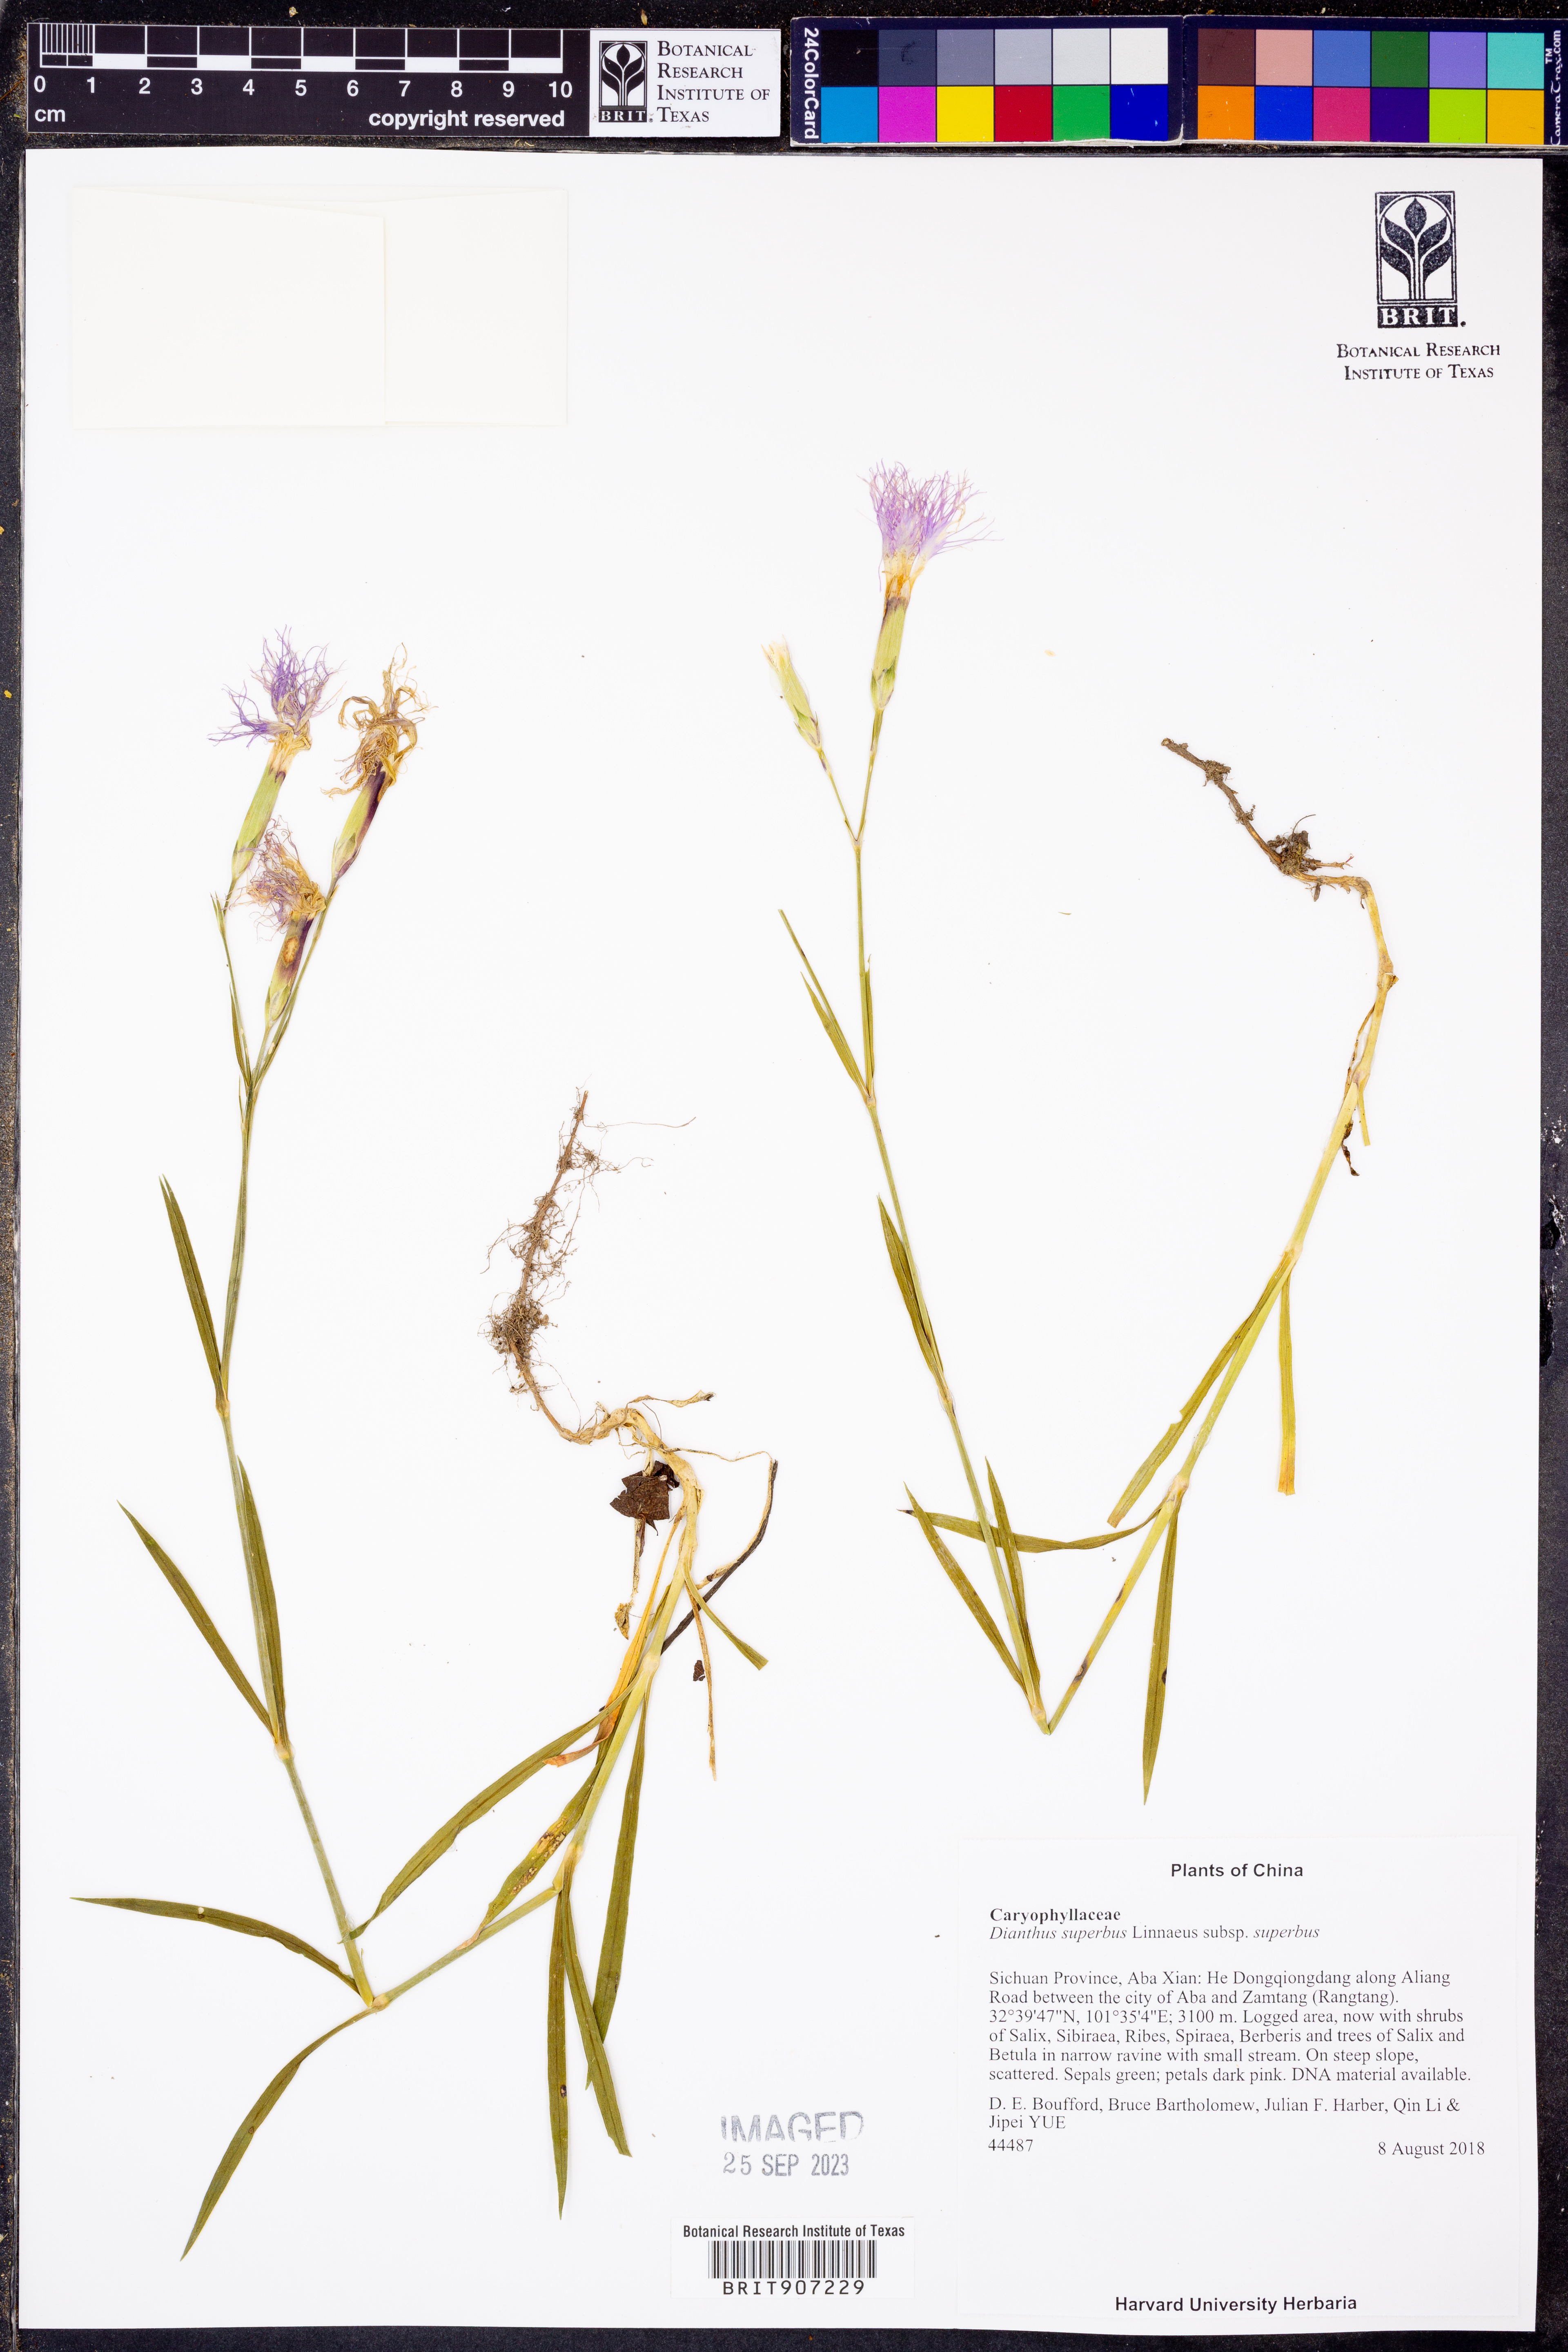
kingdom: Plantae
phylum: Tracheophyta
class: Magnoliopsida
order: Caryophyllales
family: Caryophyllaceae
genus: Dianthus
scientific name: Dianthus superbus
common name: Fringed pink
